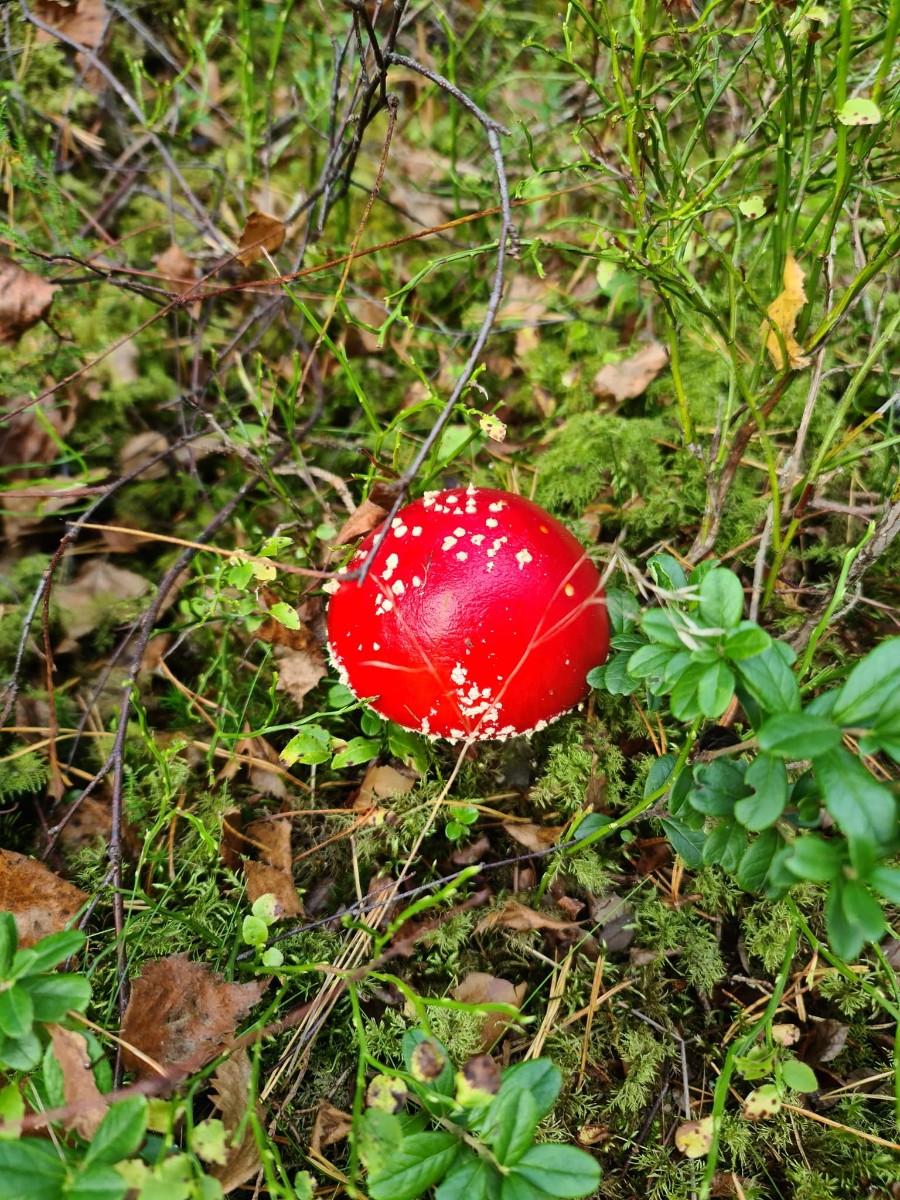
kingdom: Fungi
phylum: Basidiomycota
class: Agaricomycetes
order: Agaricales
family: Amanitaceae
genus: Amanita
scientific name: Amanita muscaria
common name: rød fluesvamp
